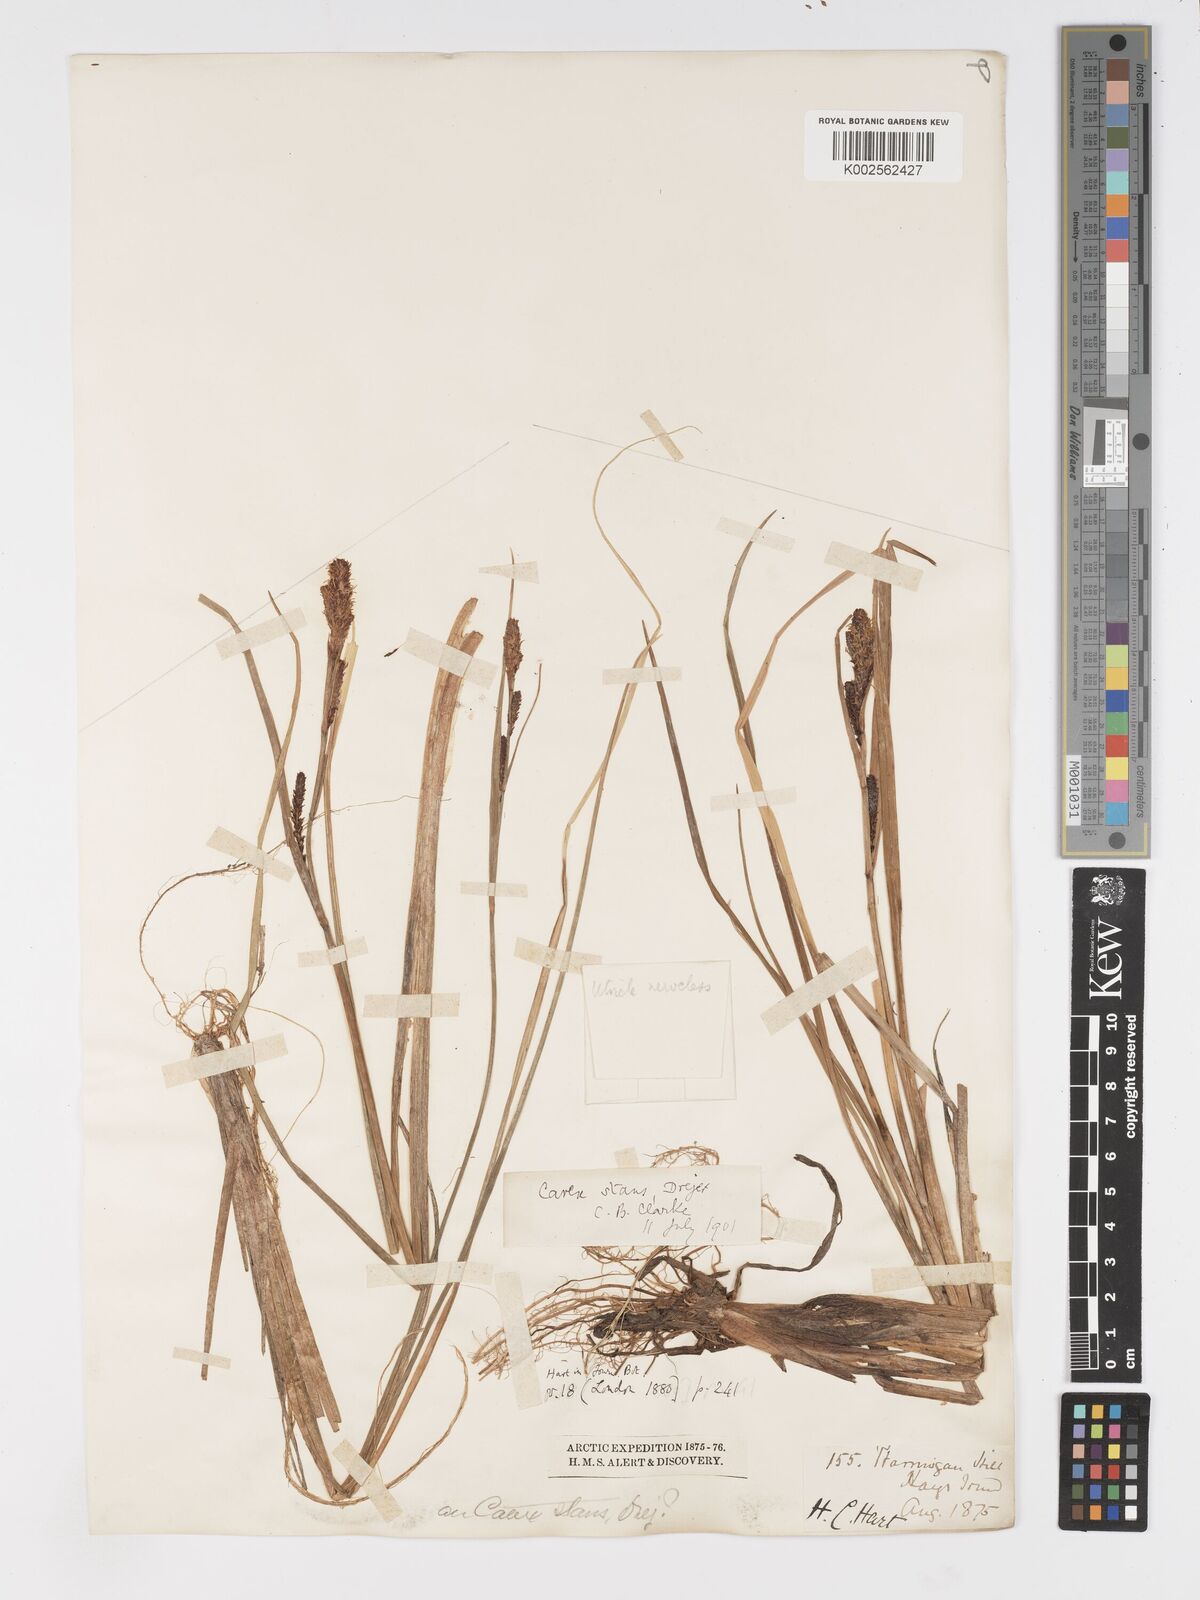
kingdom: Plantae
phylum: Tracheophyta
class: Liliopsida
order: Poales
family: Cyperaceae
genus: Carex
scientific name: Carex
